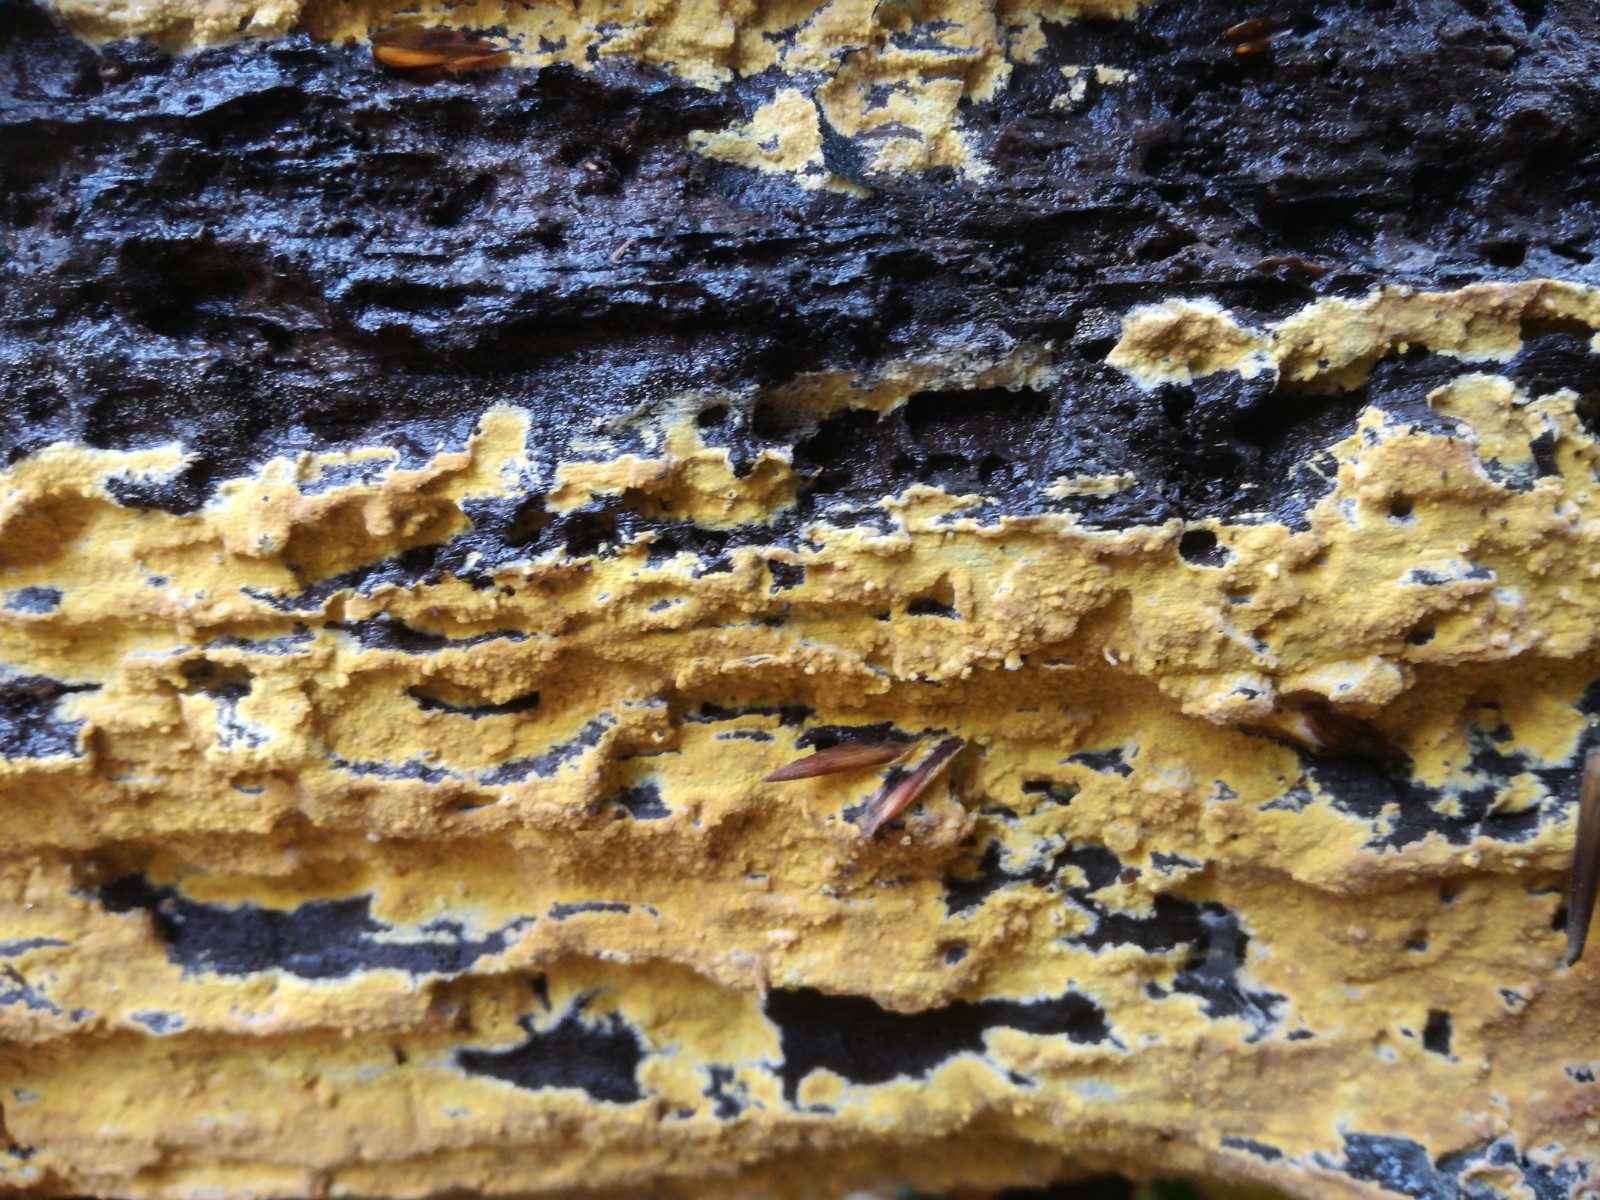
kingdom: Fungi
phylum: Basidiomycota
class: Agaricomycetes
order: Polyporales
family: Meruliaceae
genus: Phlebiodontia
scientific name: Phlebiodontia subochracea
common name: svovl-åresvamp
